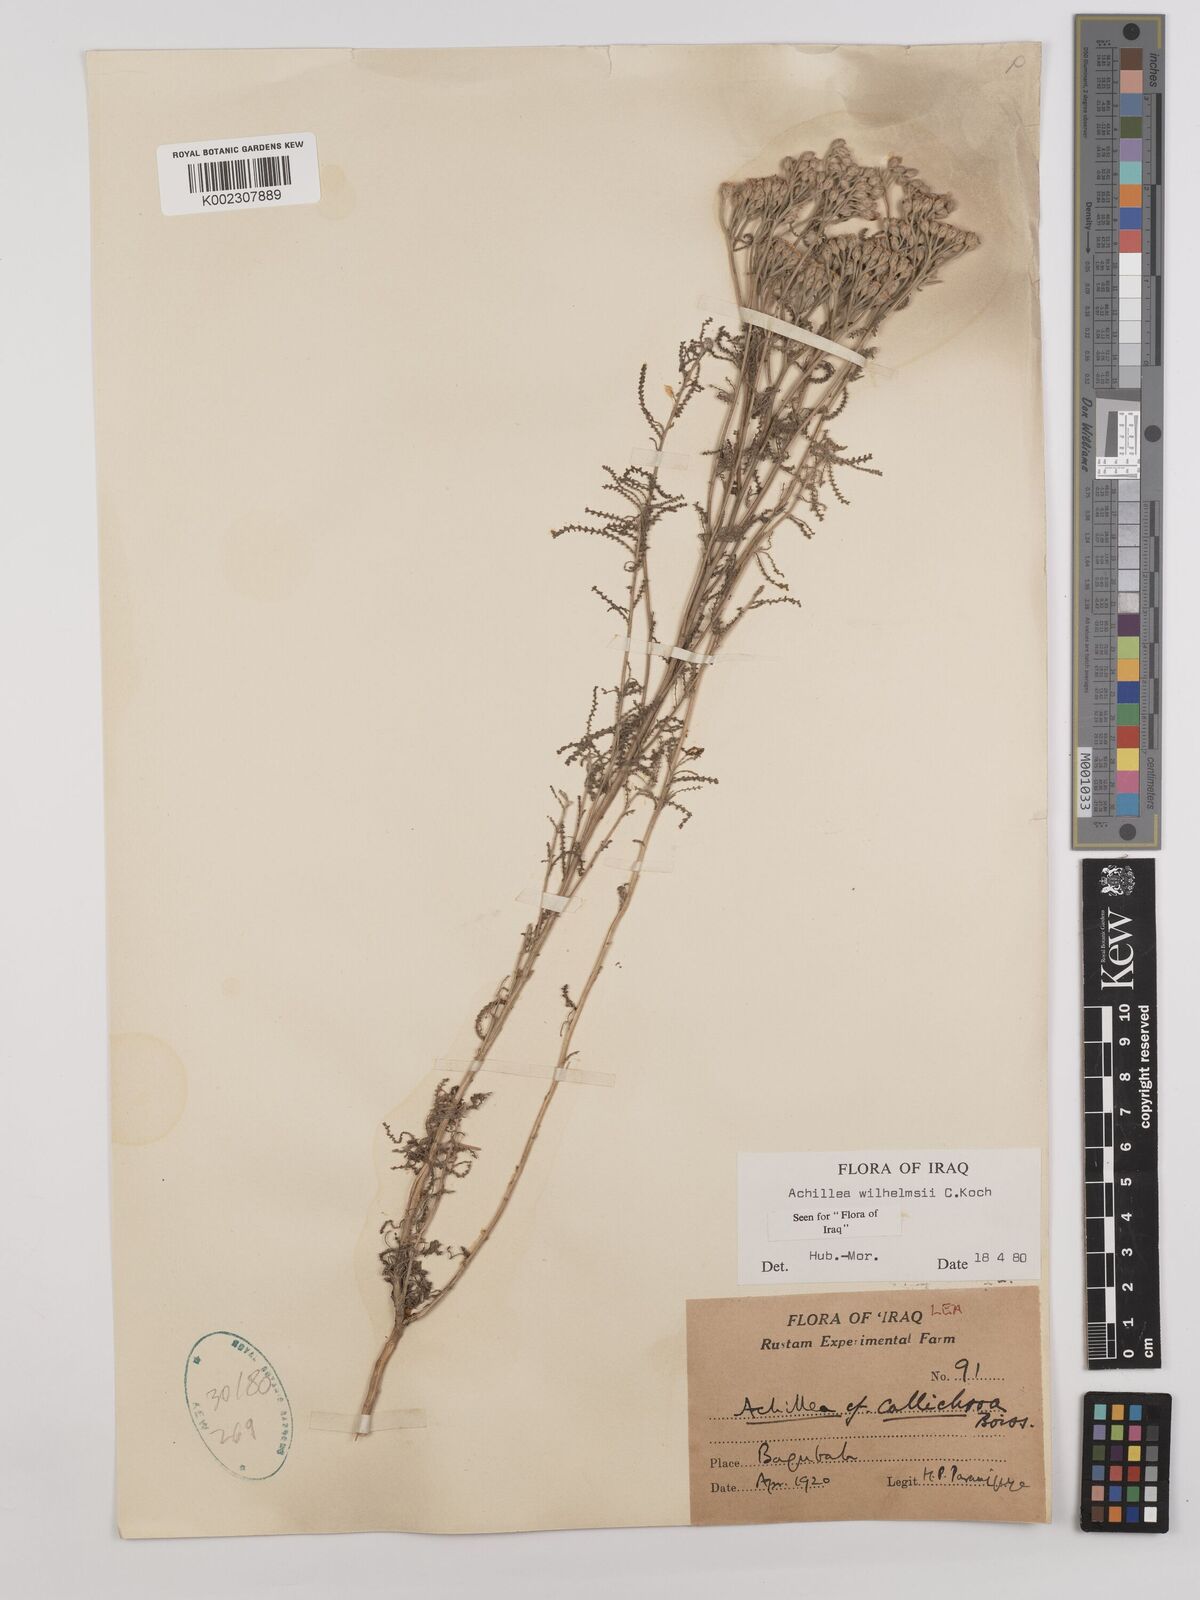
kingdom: Plantae
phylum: Tracheophyta
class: Magnoliopsida
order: Asterales
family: Asteraceae
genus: Achillea
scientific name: Achillea wilhelmsii
